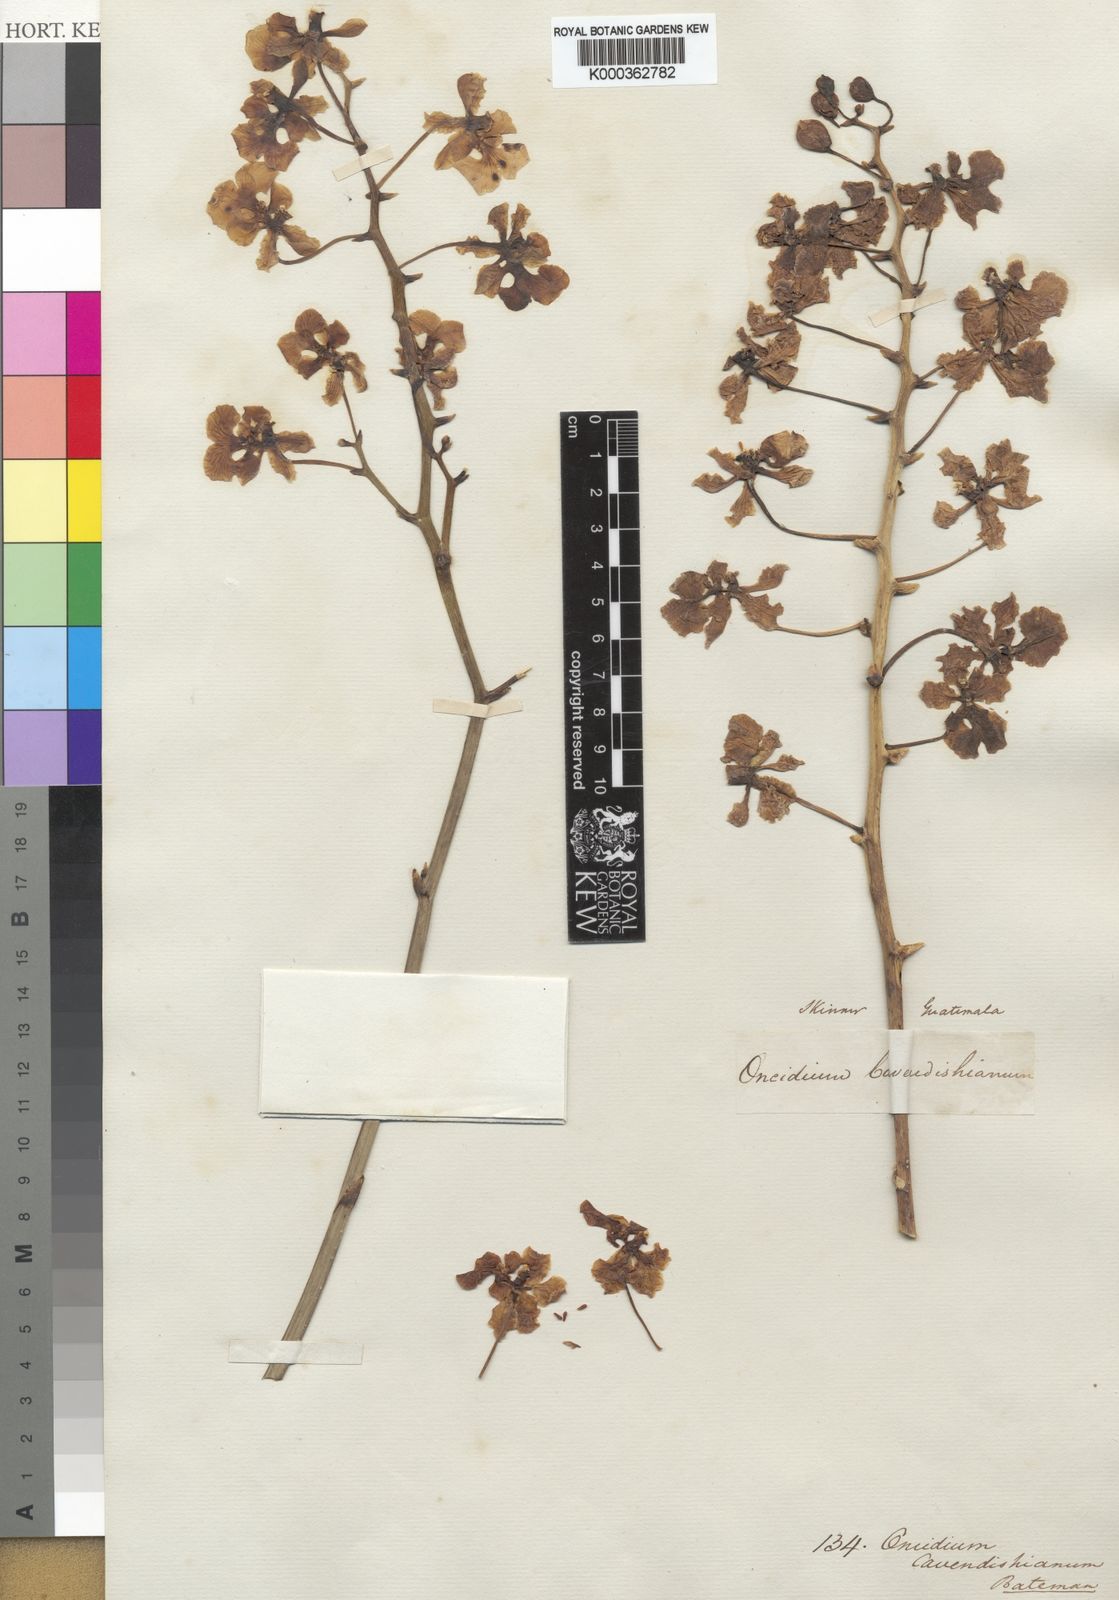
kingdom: Plantae
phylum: Tracheophyta
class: Liliopsida
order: Asparagales
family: Orchidaceae
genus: Trichocentrum
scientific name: Trichocentrum cavendishianum
